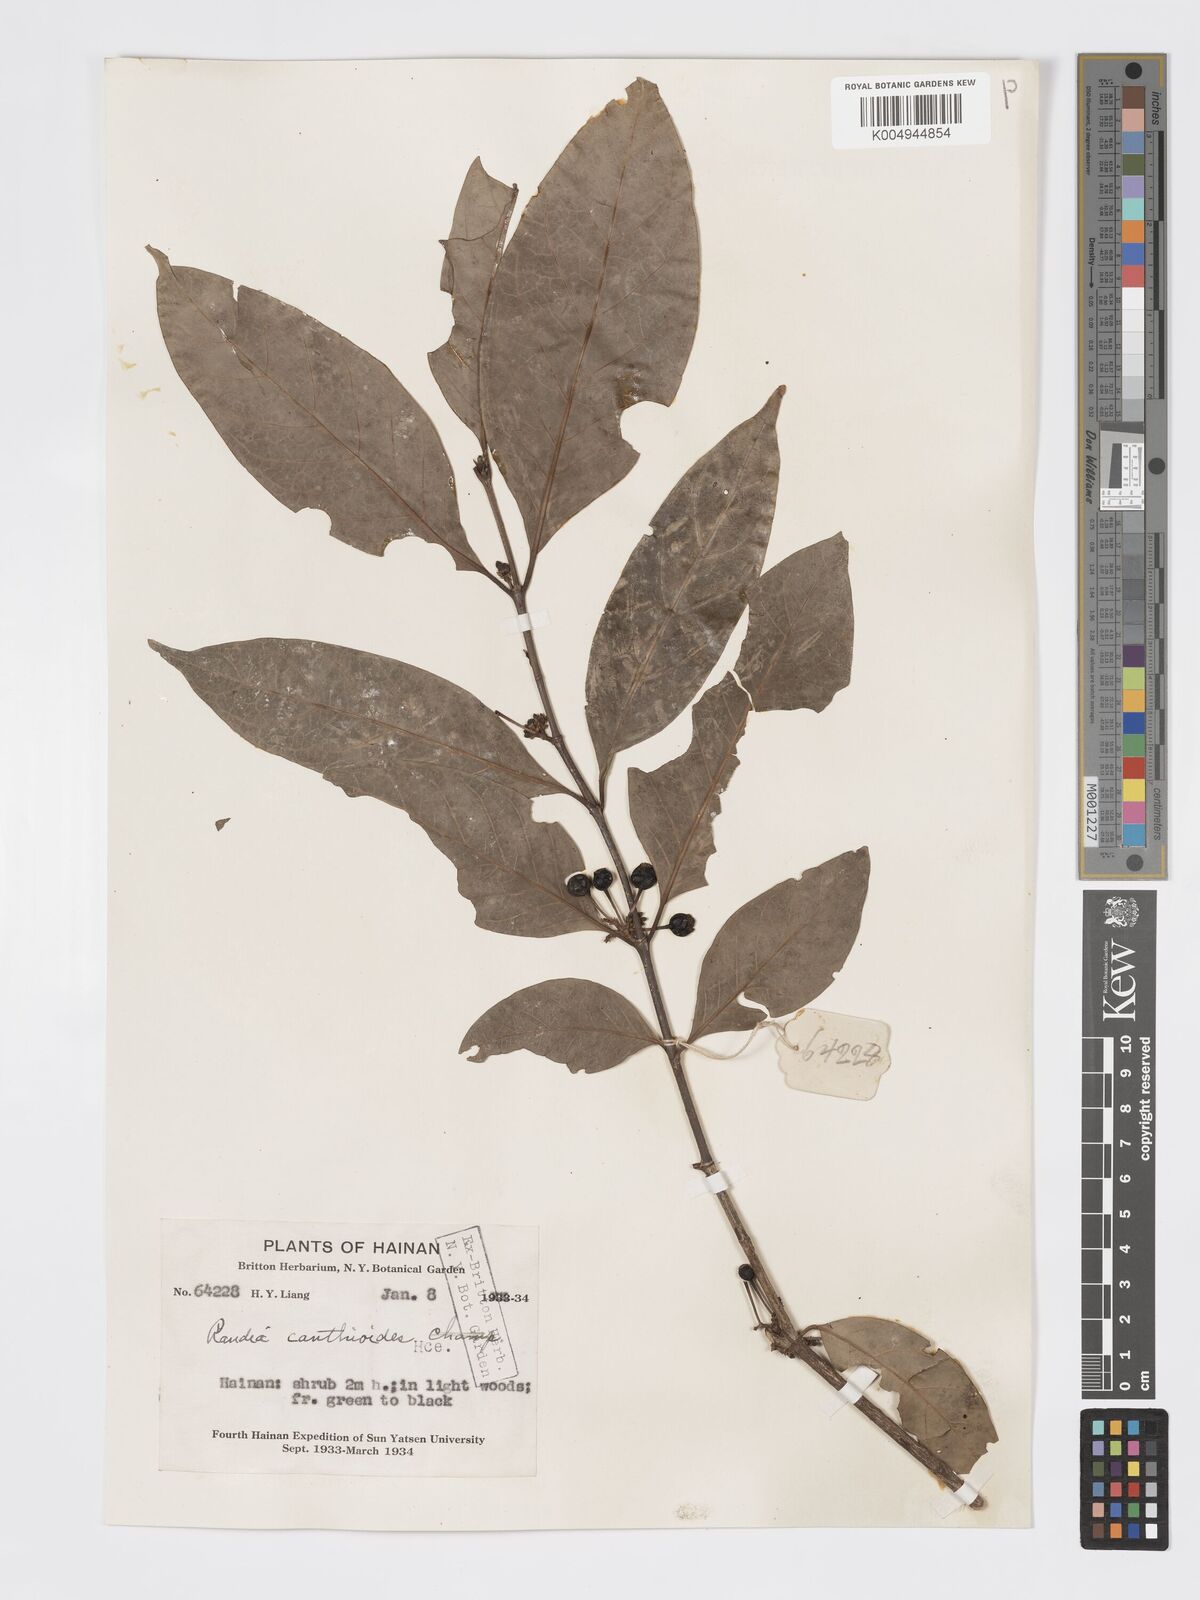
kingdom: Plantae
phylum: Tracheophyta
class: Magnoliopsida
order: Gentianales
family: Rubiaceae
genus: Aidia
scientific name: Aidia canthioides
